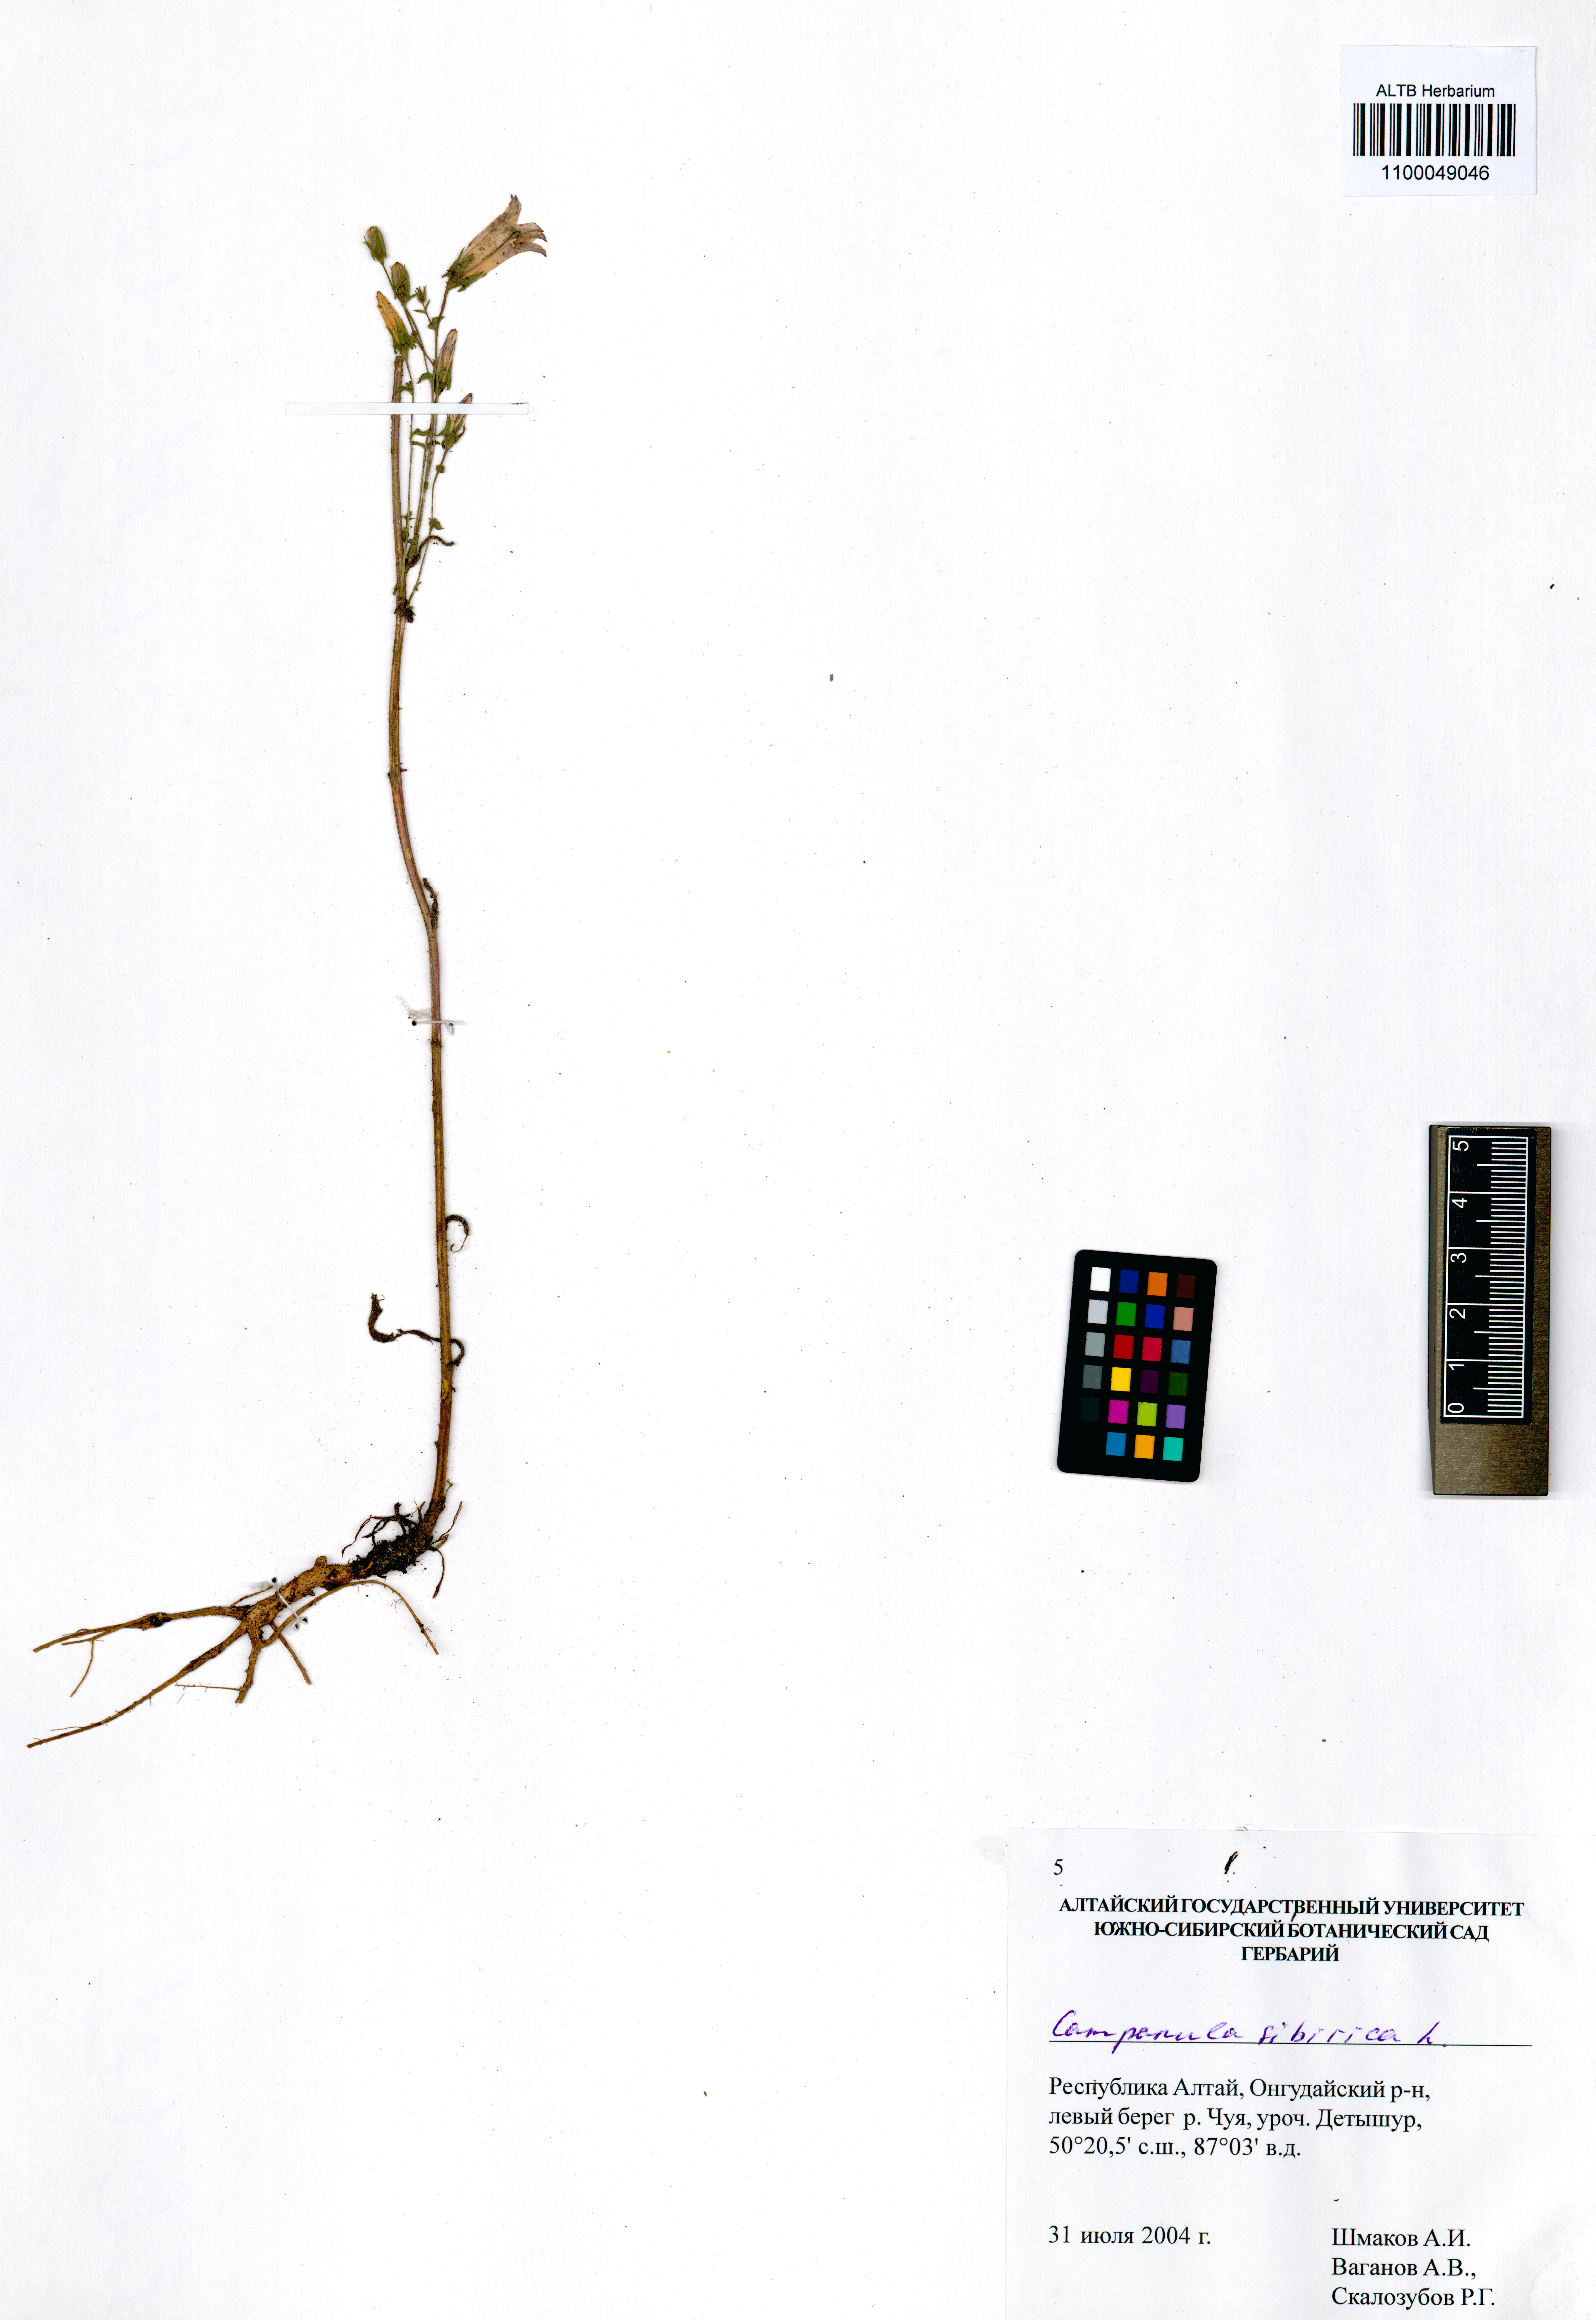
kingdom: Plantae
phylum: Tracheophyta
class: Magnoliopsida
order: Asterales
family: Campanulaceae
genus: Campanula
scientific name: Campanula sibirica
